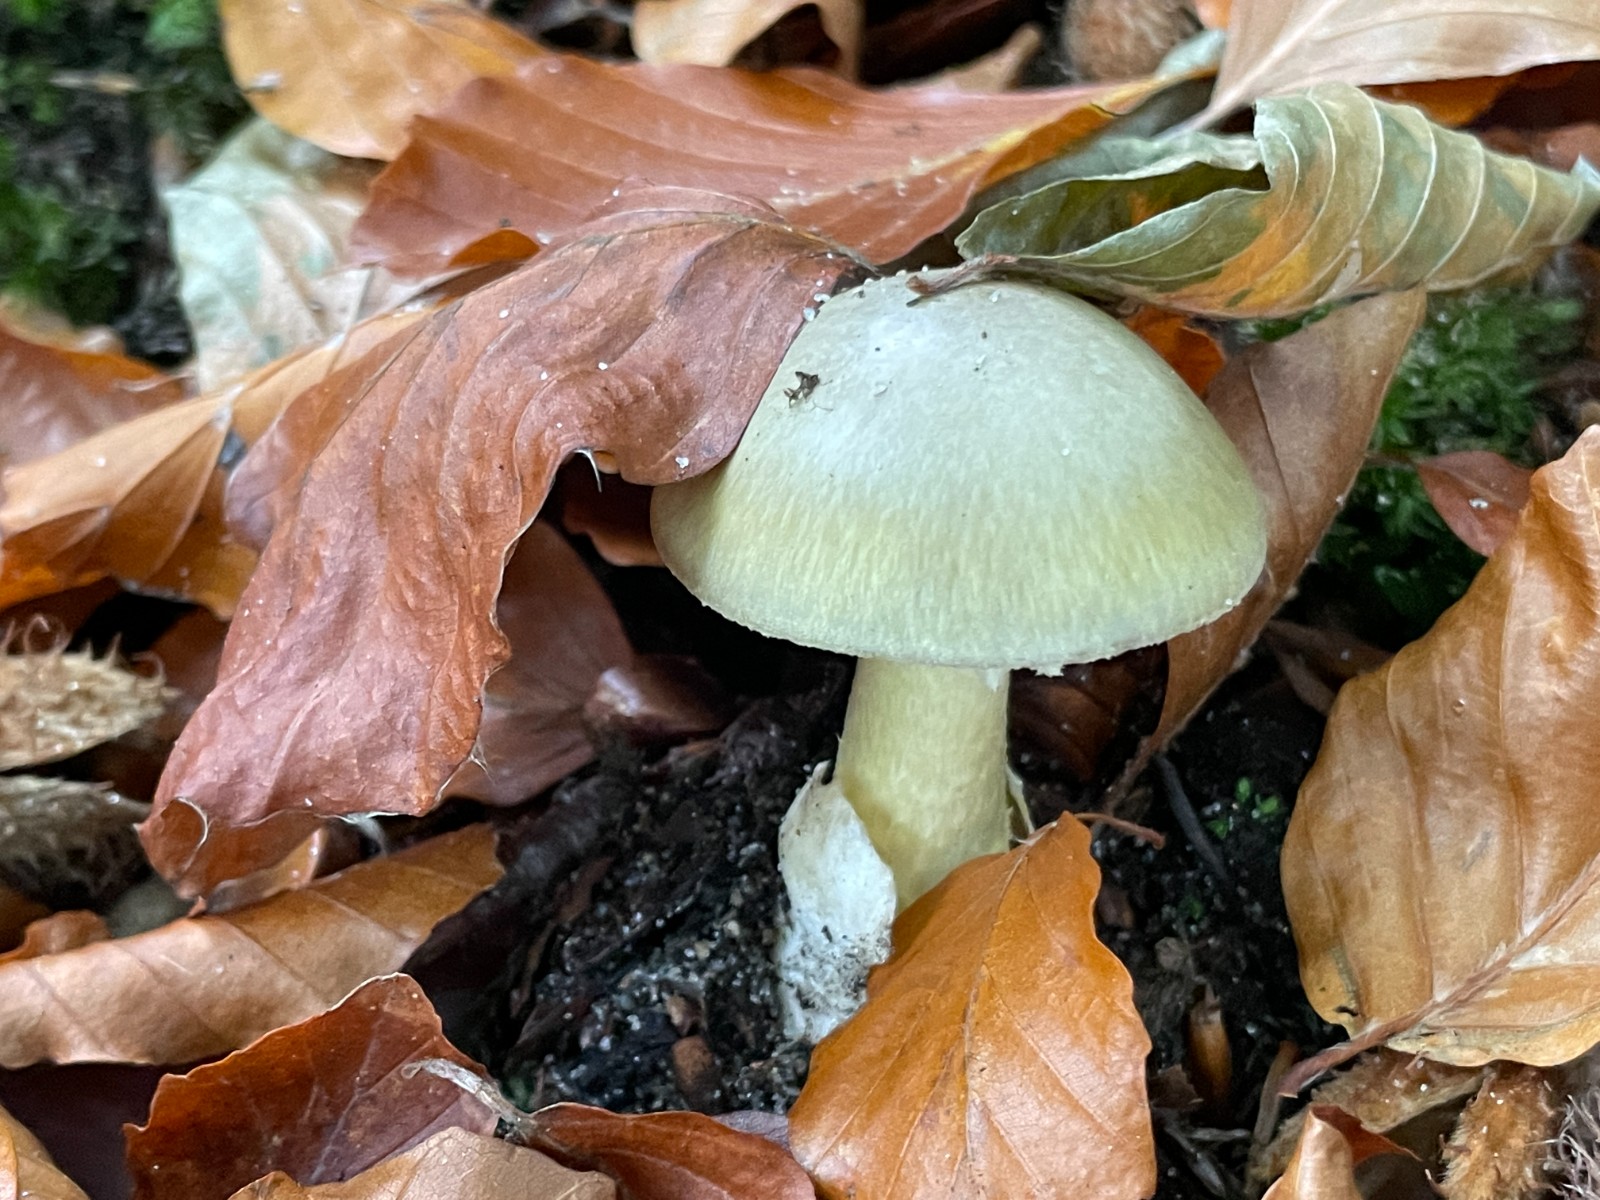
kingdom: Fungi
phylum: Basidiomycota
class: Agaricomycetes
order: Agaricales
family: Amanitaceae
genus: Amanita
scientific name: Amanita phalloides
